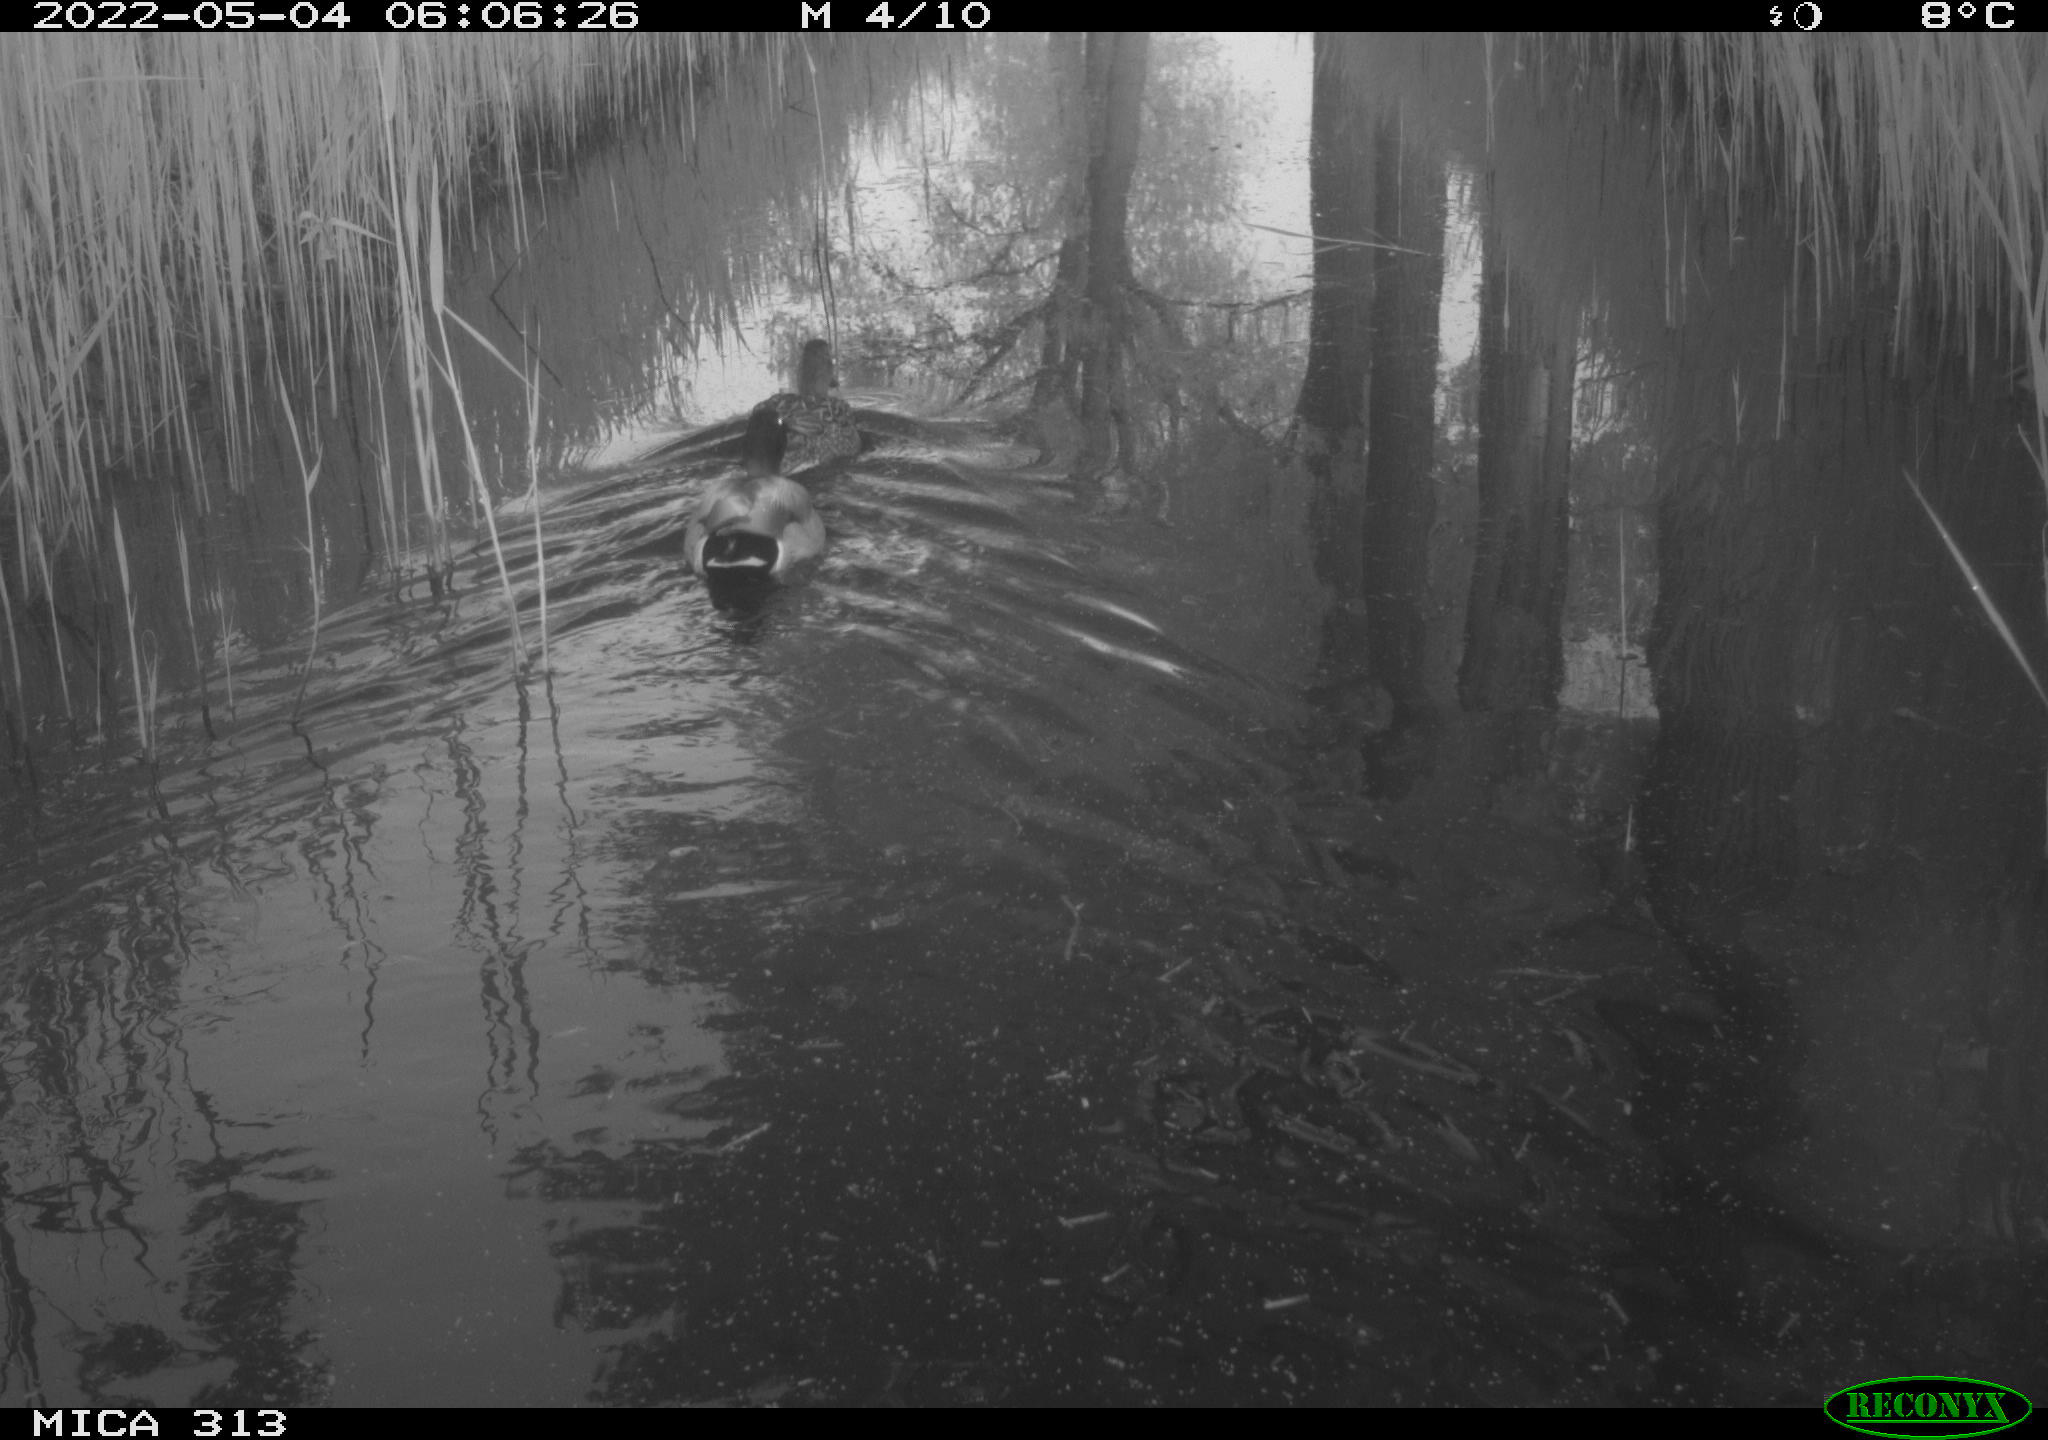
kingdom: Animalia
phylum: Chordata
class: Aves
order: Anseriformes
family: Anatidae
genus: Anas
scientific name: Anas platyrhynchos
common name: Mallard
